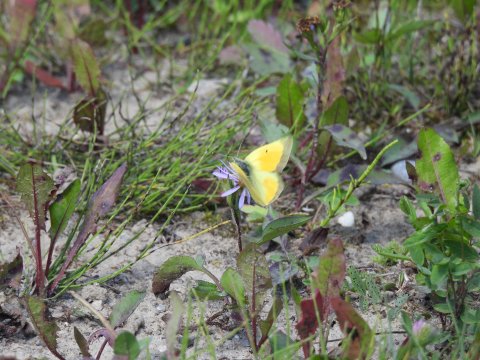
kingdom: Animalia
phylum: Arthropoda
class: Insecta
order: Lepidoptera
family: Pieridae
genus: Colias
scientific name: Colias christina
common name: Christina Sulphur
